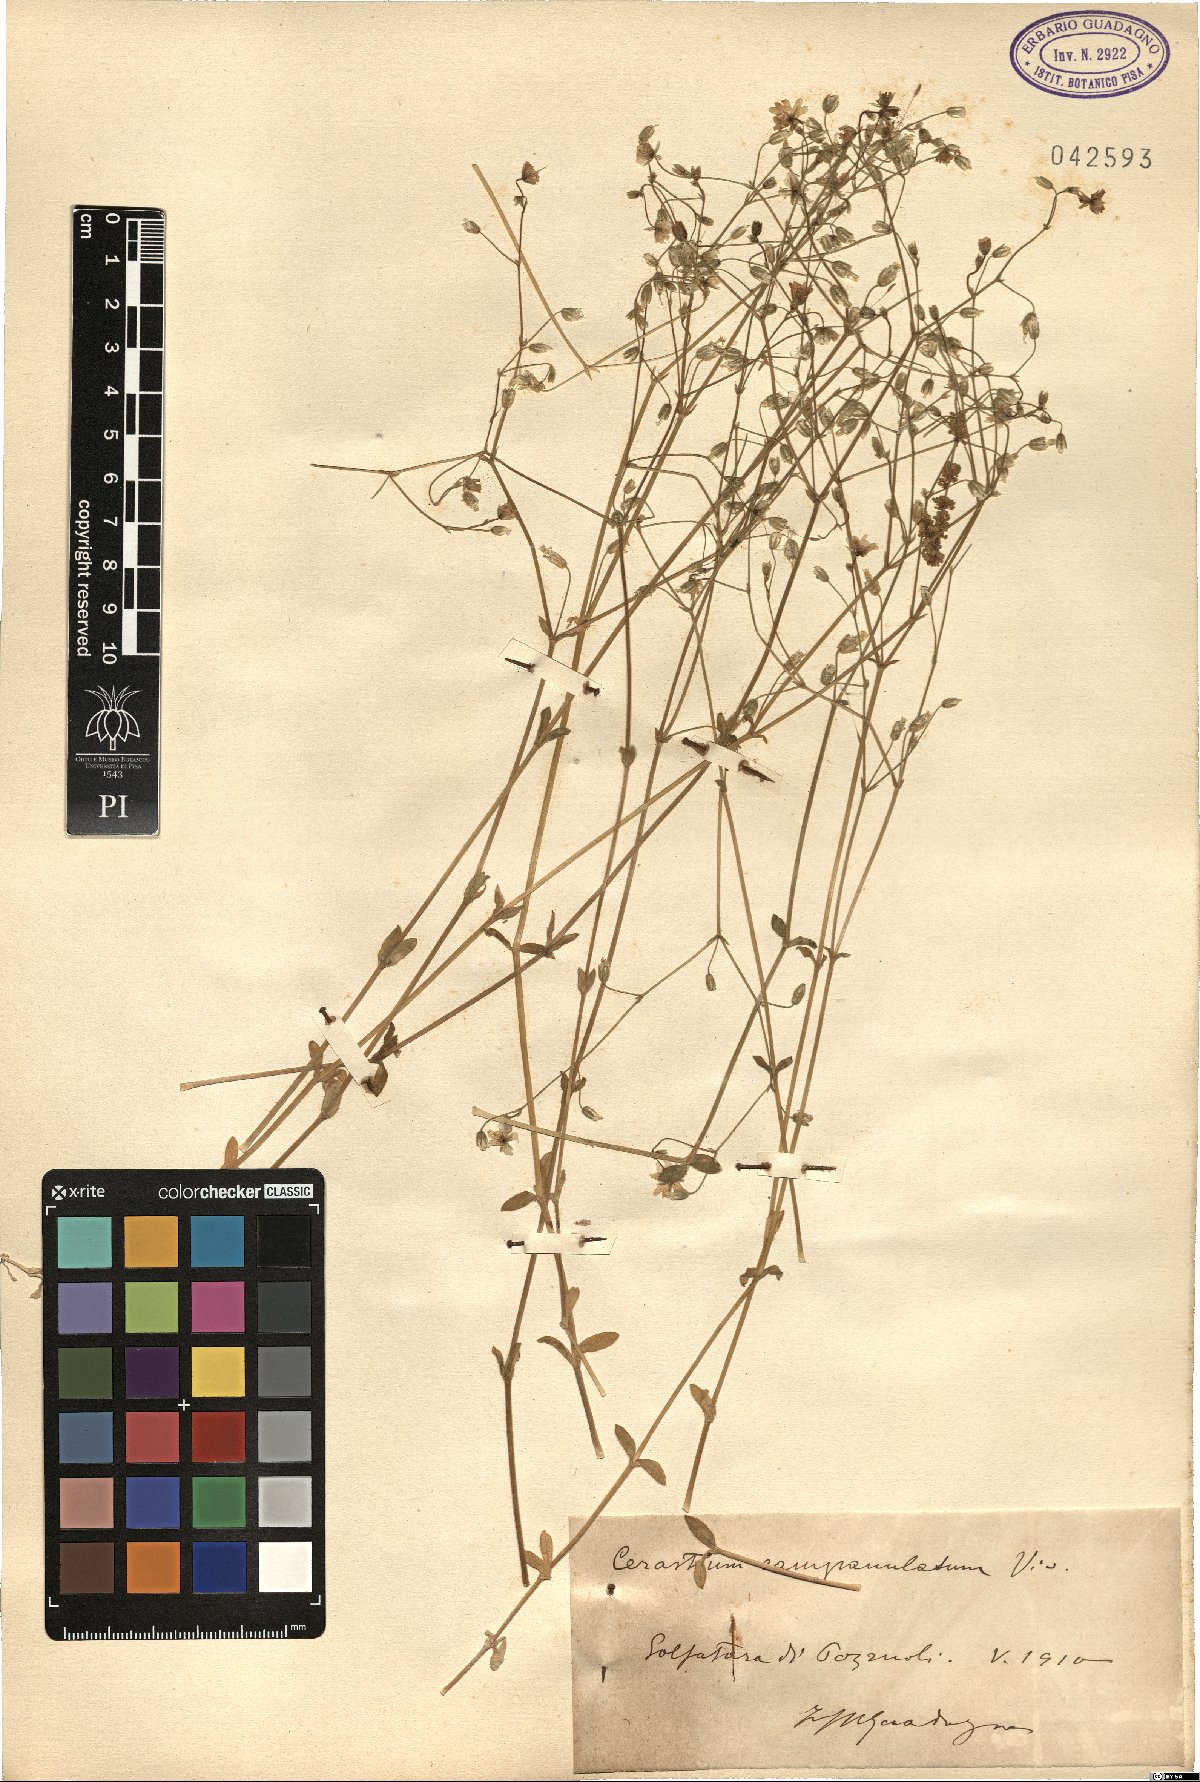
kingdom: Plantae
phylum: Tracheophyta
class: Magnoliopsida
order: Caryophyllales
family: Caryophyllaceae
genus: Cerastium
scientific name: Cerastium ligusticum
